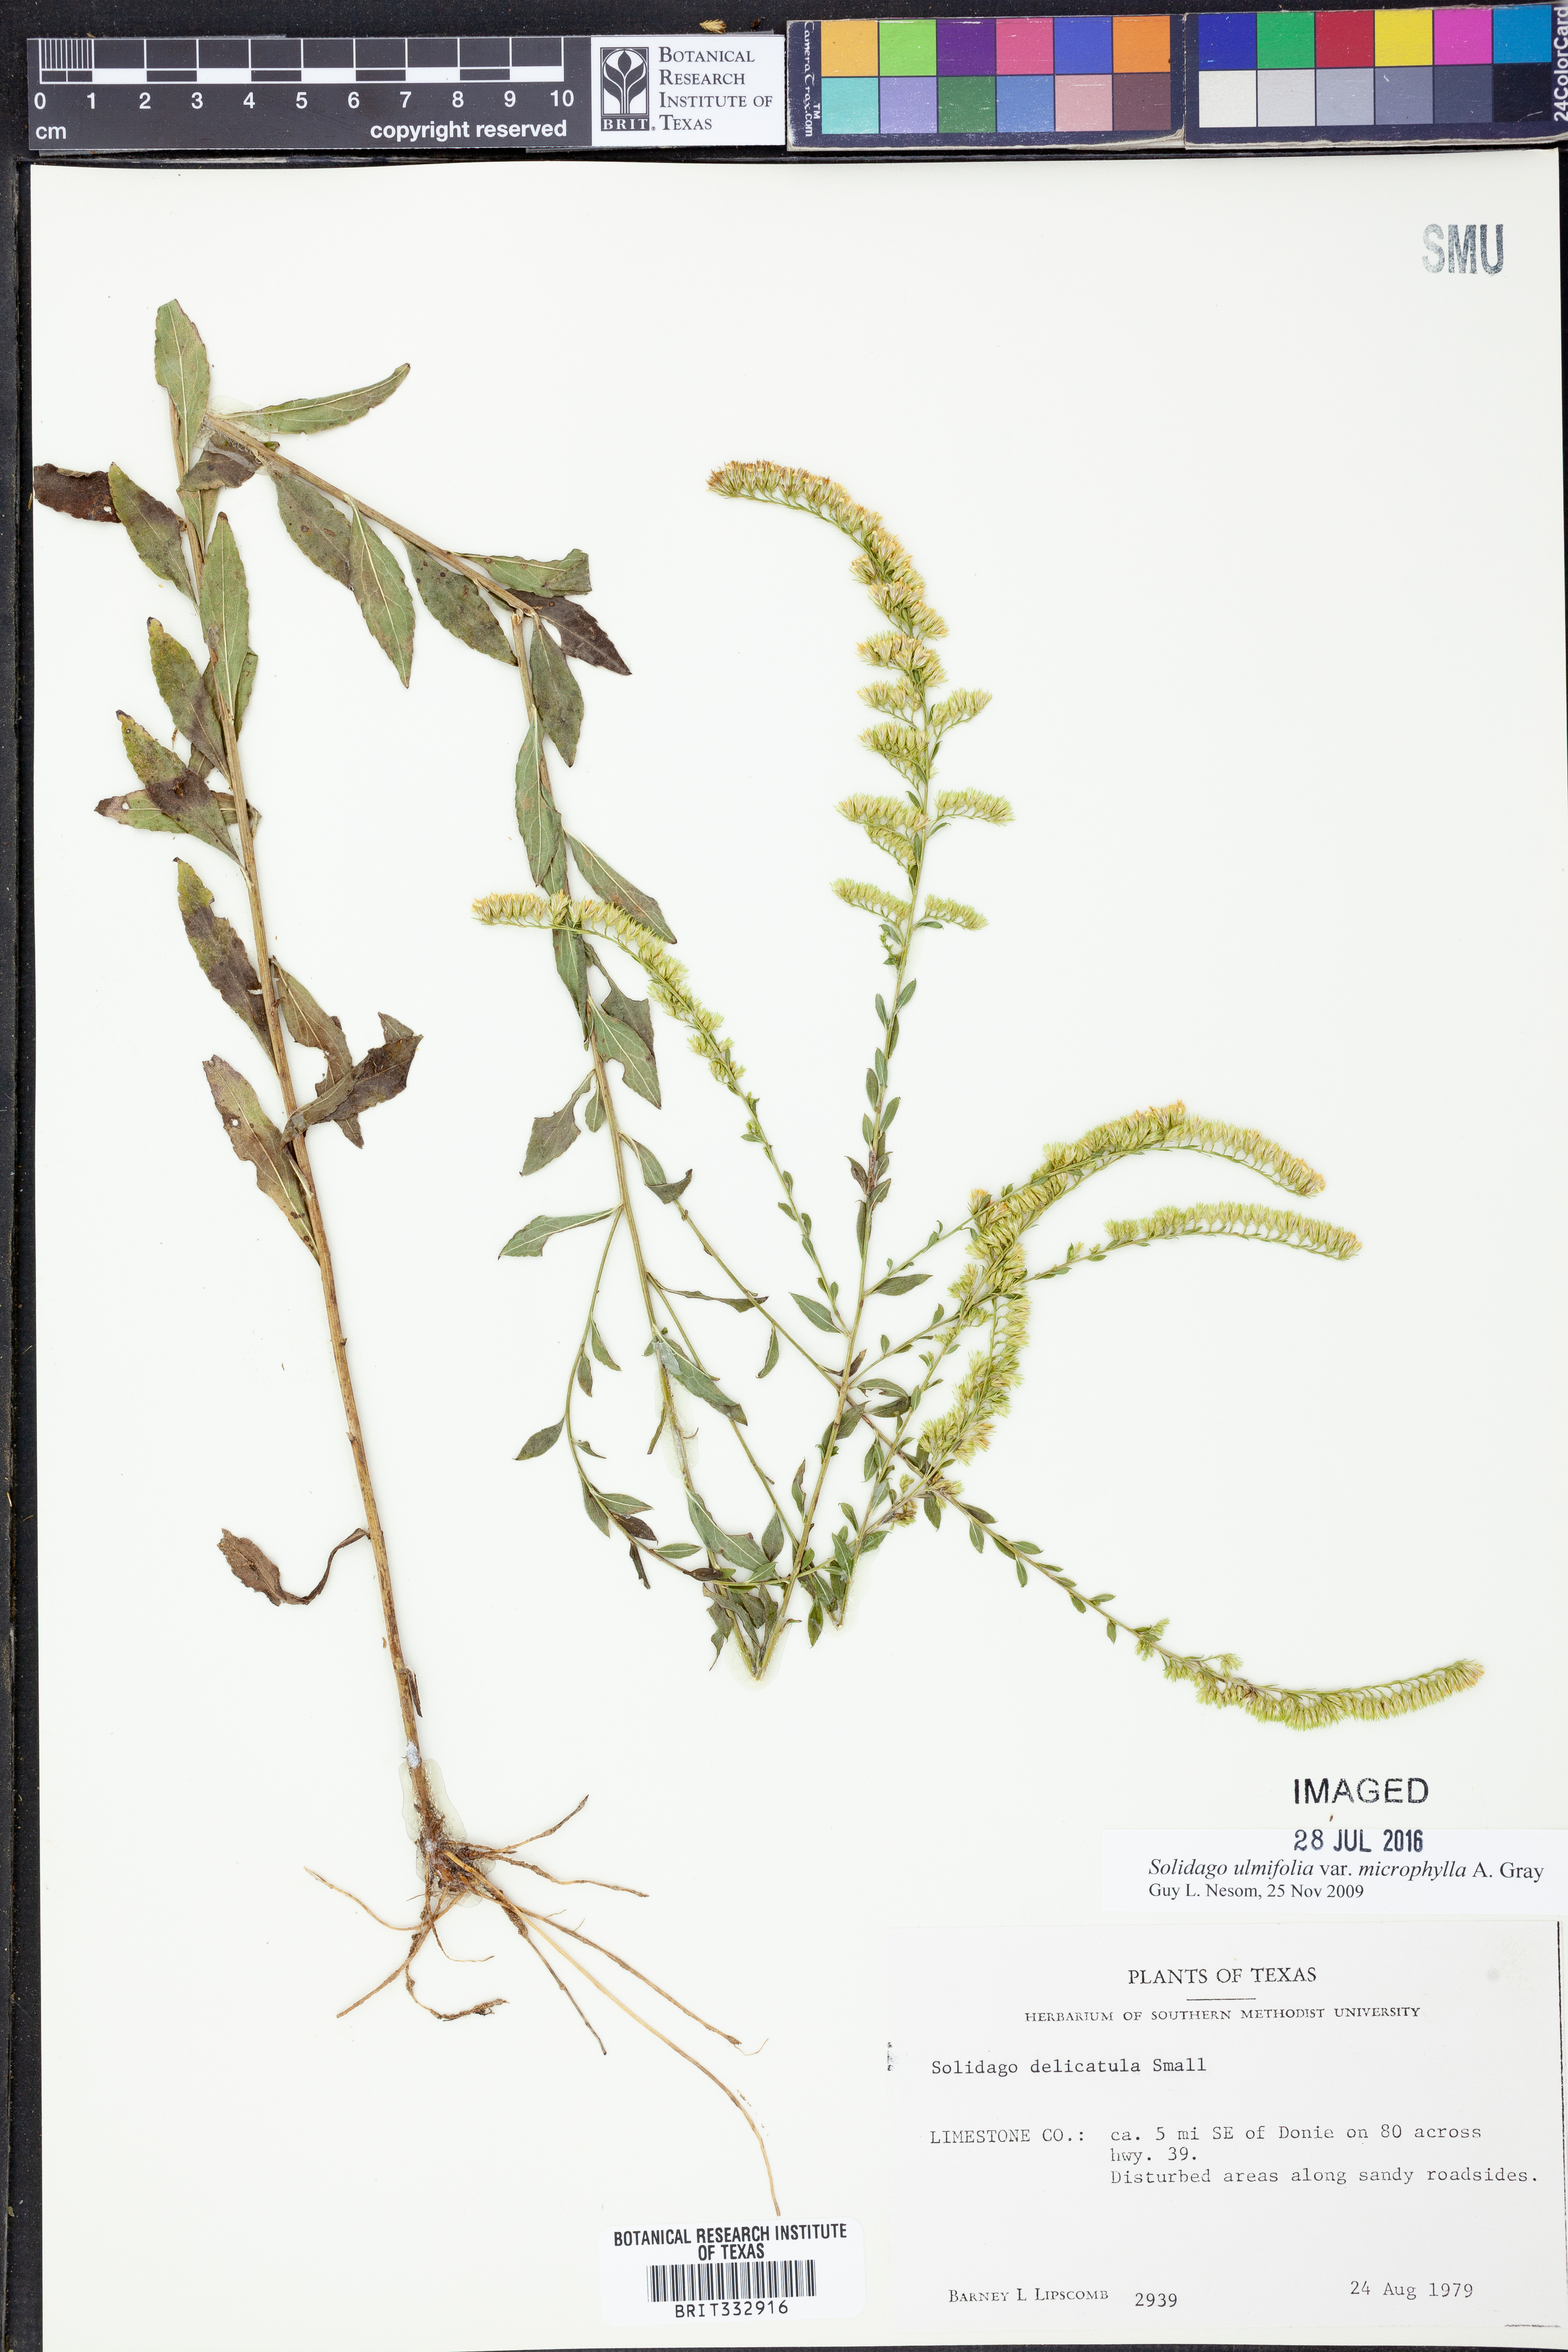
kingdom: Plantae
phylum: Tracheophyta
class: Magnoliopsida
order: Asterales
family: Asteraceae
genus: Solidago
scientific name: Solidago delicatula
